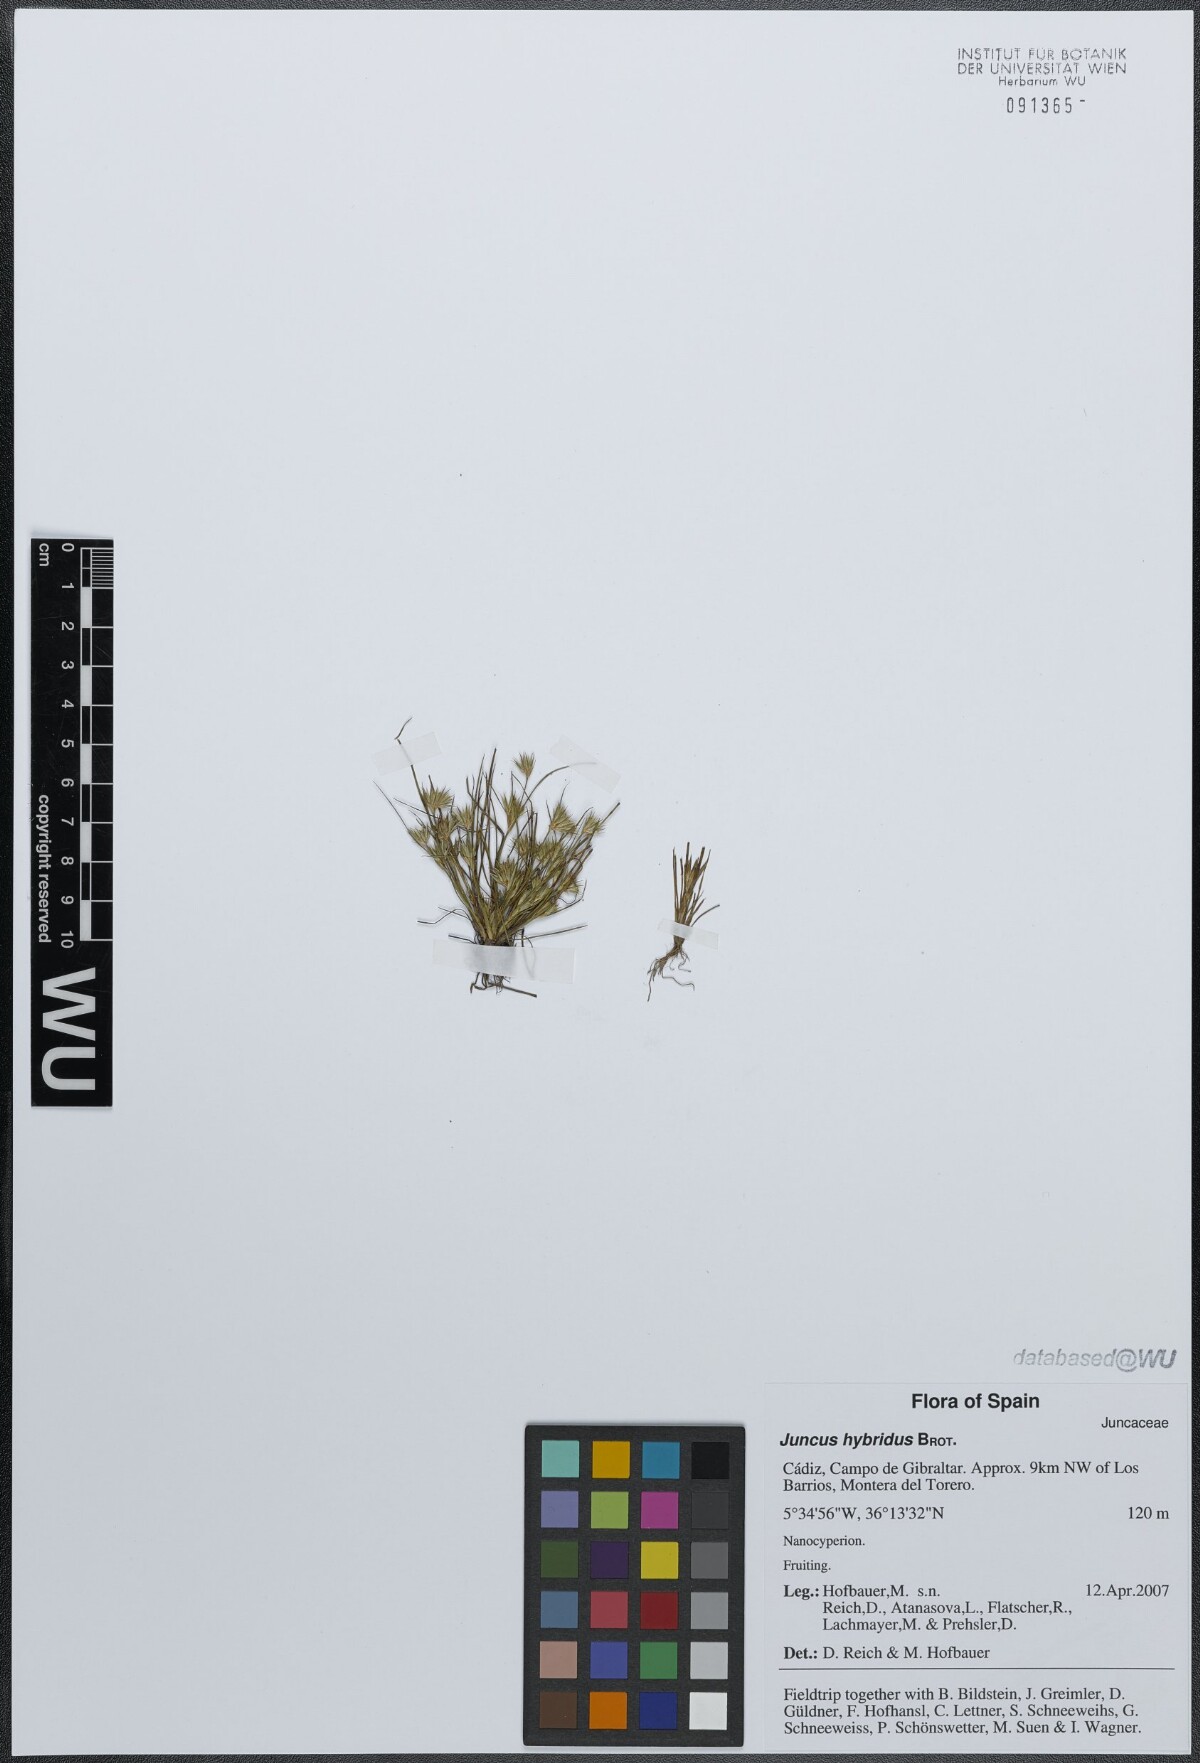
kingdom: Plantae
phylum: Tracheophyta
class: Liliopsida
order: Poales
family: Juncaceae
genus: Juncus
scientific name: Juncus hybridus
